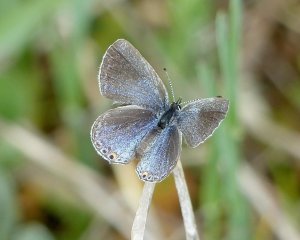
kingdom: Animalia
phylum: Arthropoda
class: Insecta
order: Lepidoptera
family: Lycaenidae
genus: Elkalyce
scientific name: Elkalyce comyntas
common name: Eastern Tailed-Blue
